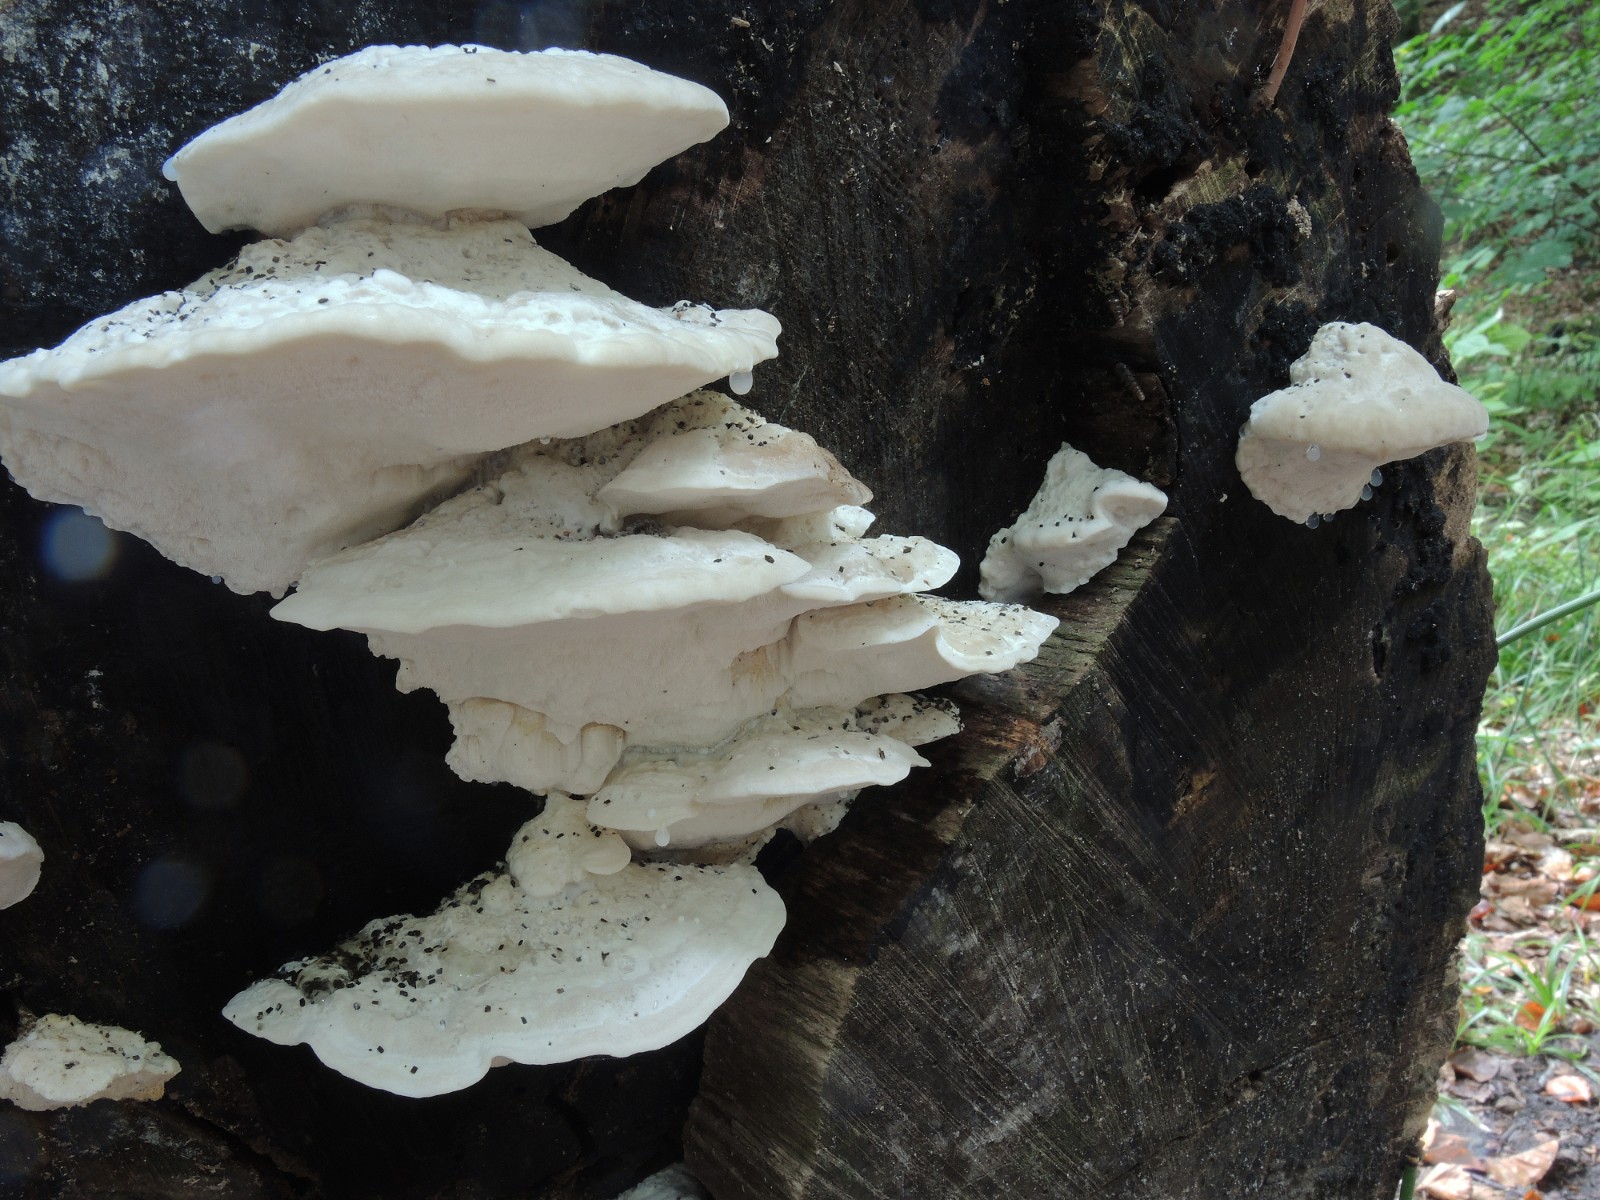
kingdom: Fungi
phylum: Basidiomycota
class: Agaricomycetes
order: Polyporales
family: Incrustoporiaceae
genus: Tyromyces
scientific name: Tyromyces lacteus
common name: mælkehvid kødporesvamp
